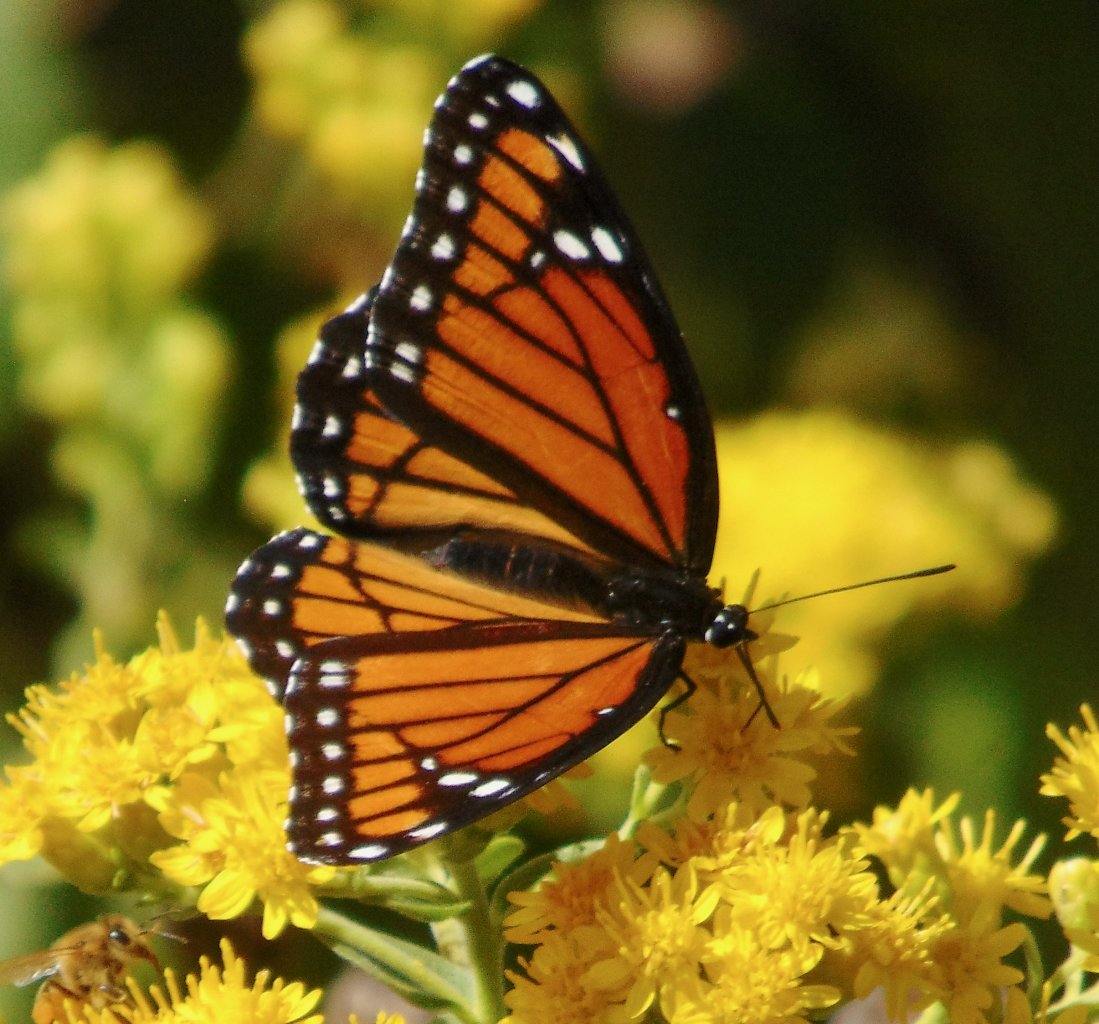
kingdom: Animalia
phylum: Arthropoda
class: Insecta
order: Lepidoptera
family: Nymphalidae
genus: Limenitis
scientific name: Limenitis archippus
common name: Viceroy
